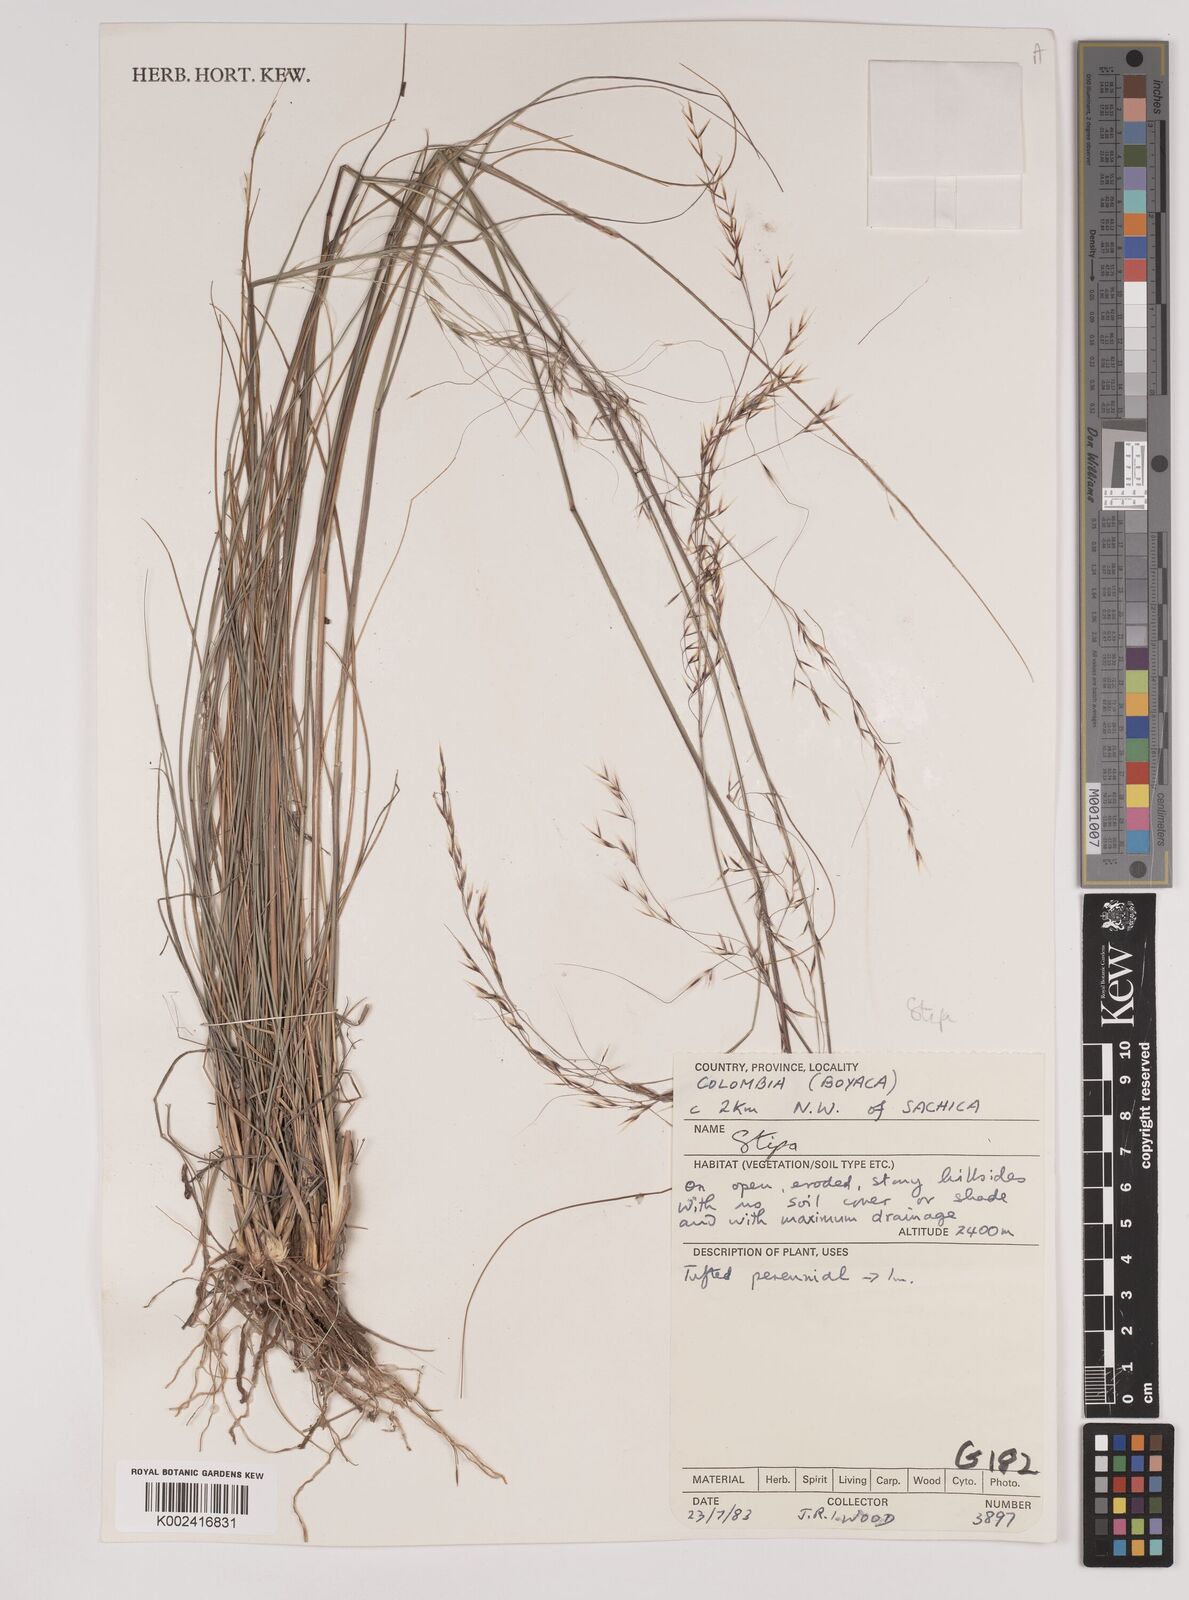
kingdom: Plantae
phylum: Tracheophyta
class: Liliopsida
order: Poales
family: Poaceae
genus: Stipa
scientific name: Stipa
